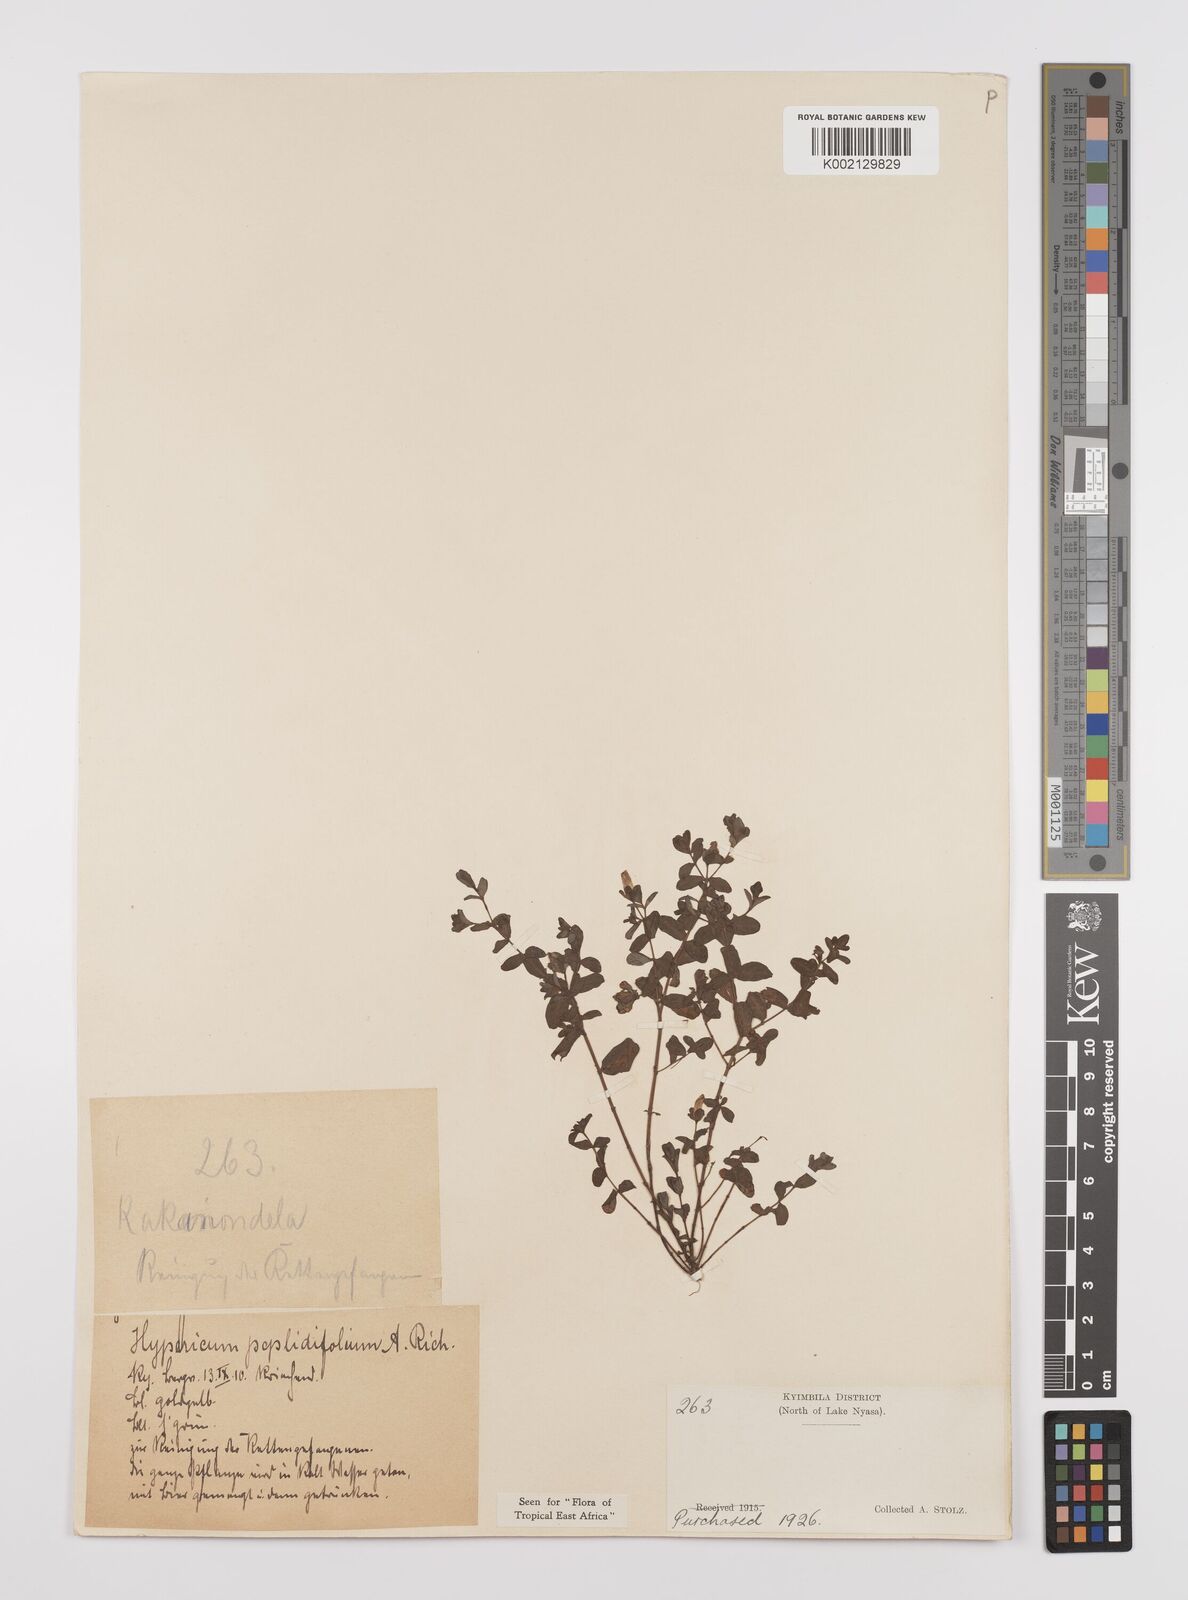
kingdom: Plantae
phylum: Tracheophyta
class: Magnoliopsida
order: Malpighiales
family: Hypericaceae
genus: Hypericum
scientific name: Hypericum peplidifolium
